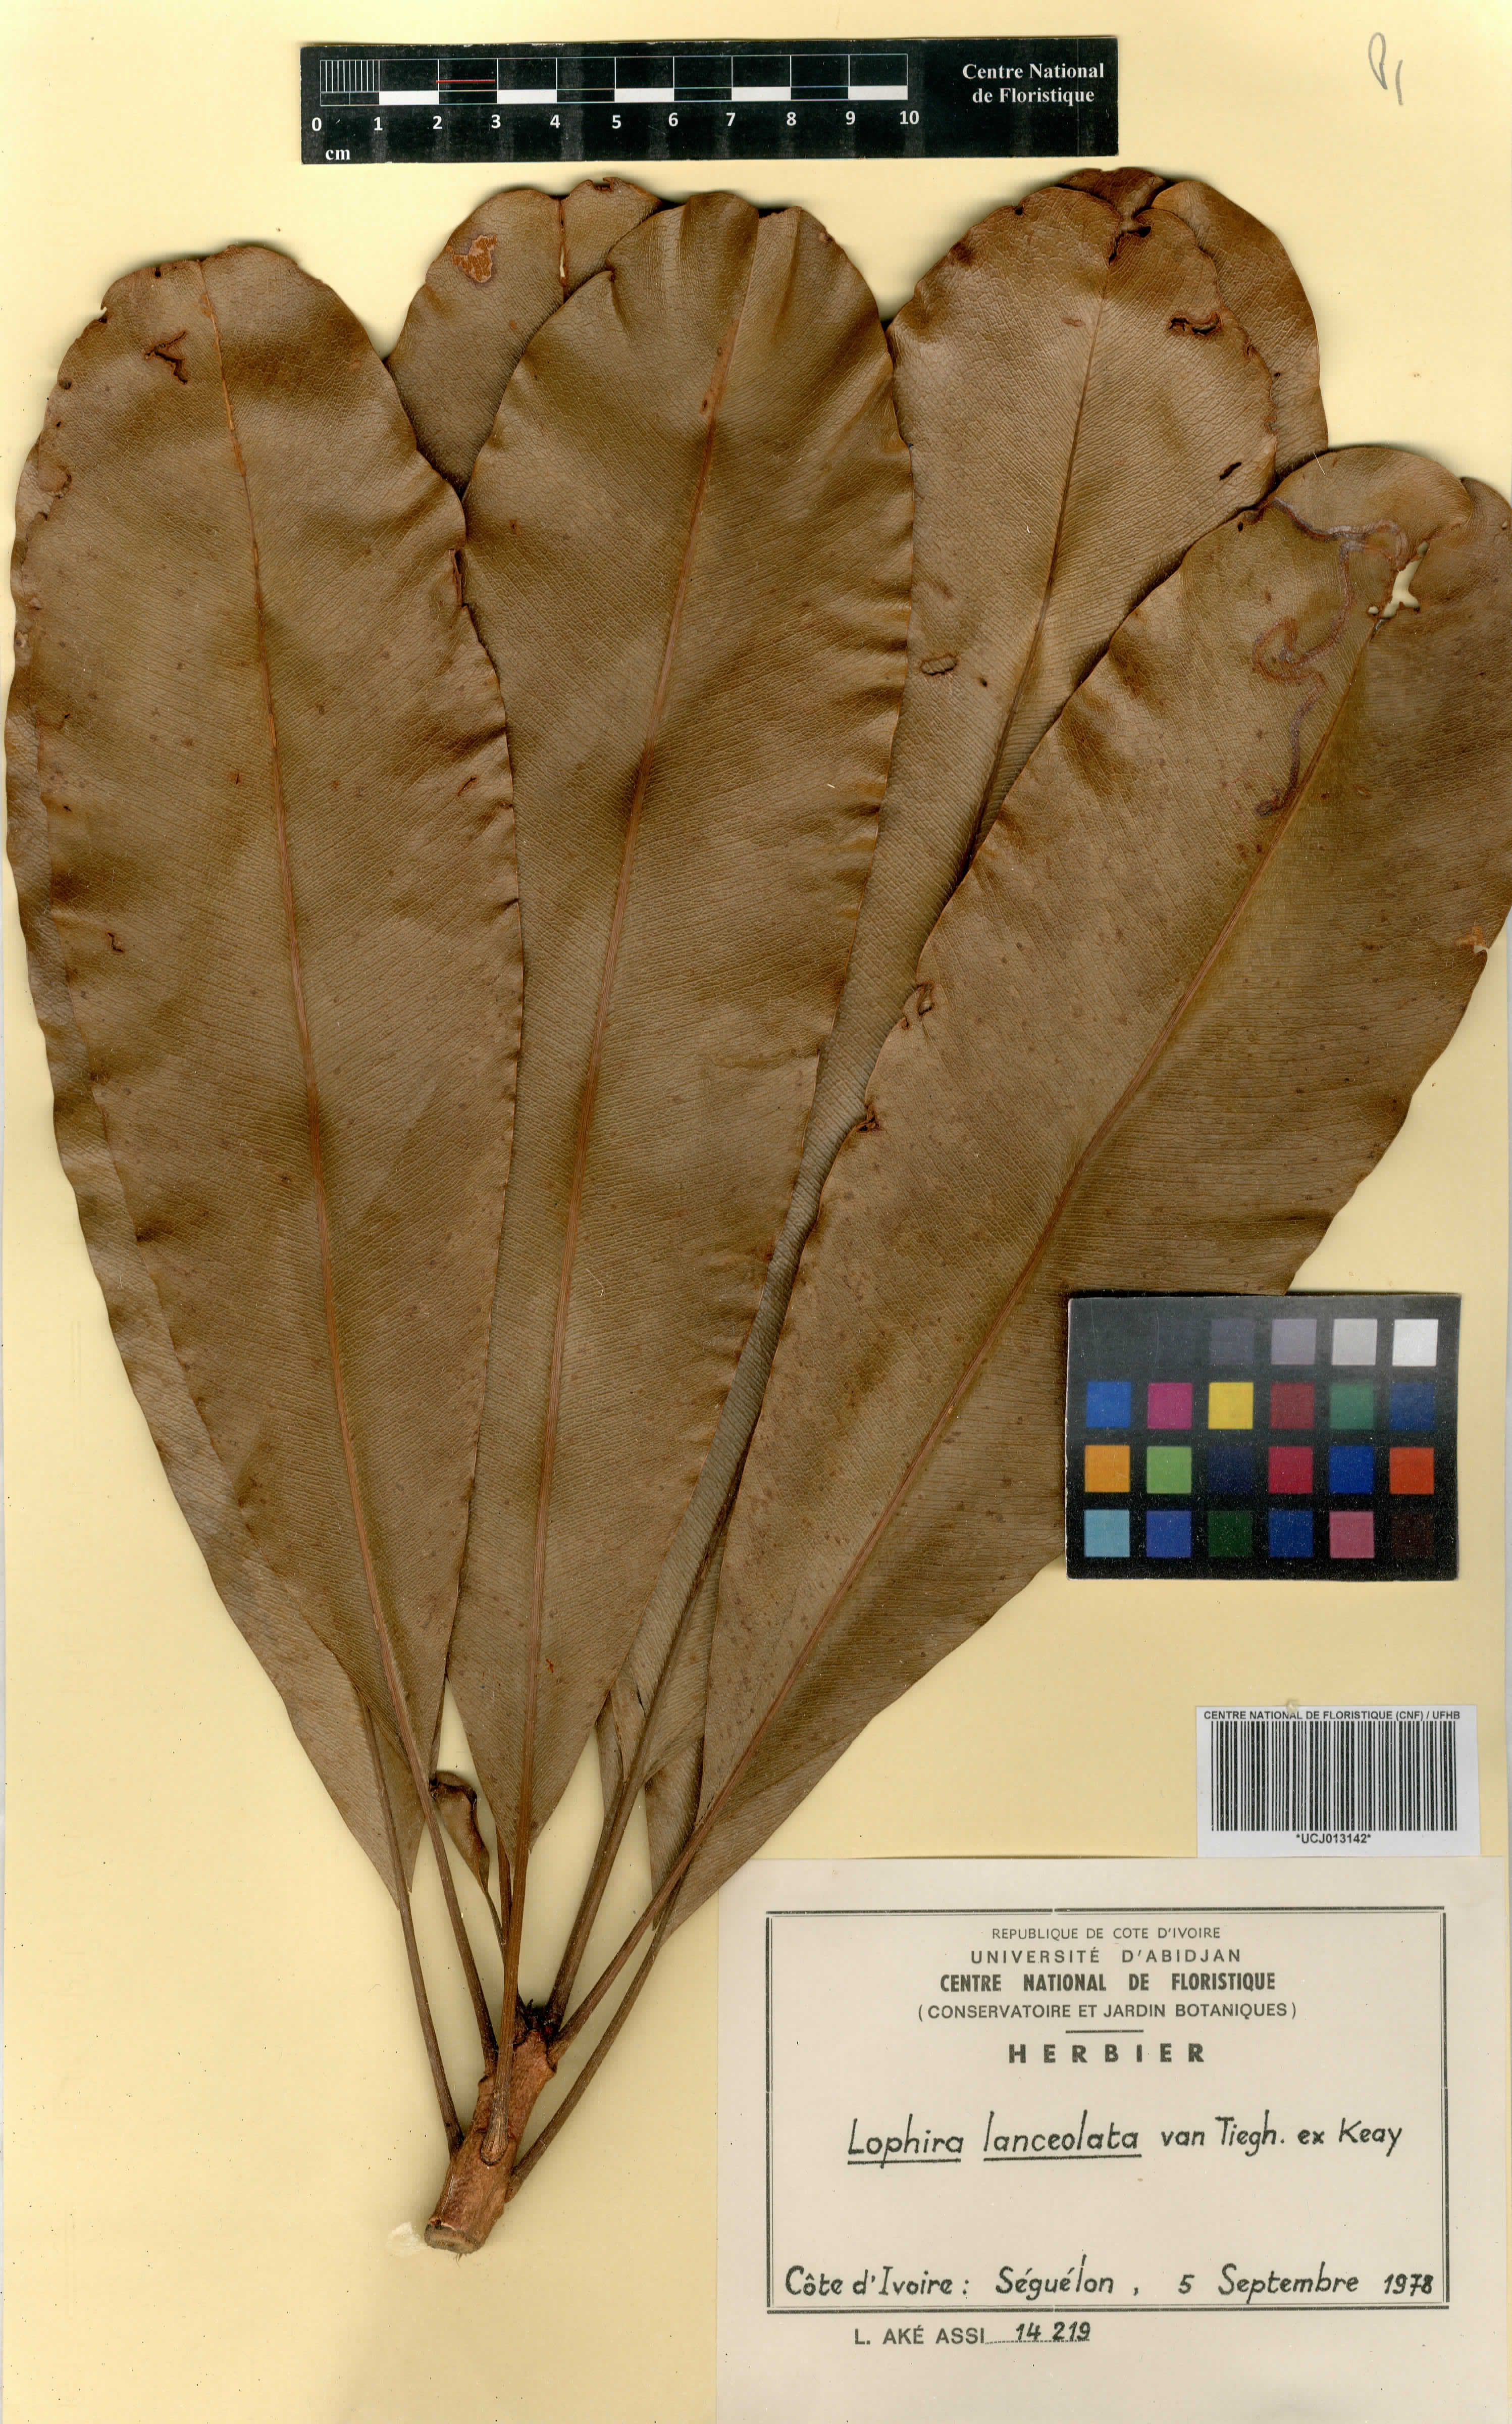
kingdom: Plantae
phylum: Tracheophyta
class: Magnoliopsida
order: Malpighiales
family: Ochnaceae
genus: Lophira
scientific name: Lophira lanceolata
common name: Dwarf red ironwood
